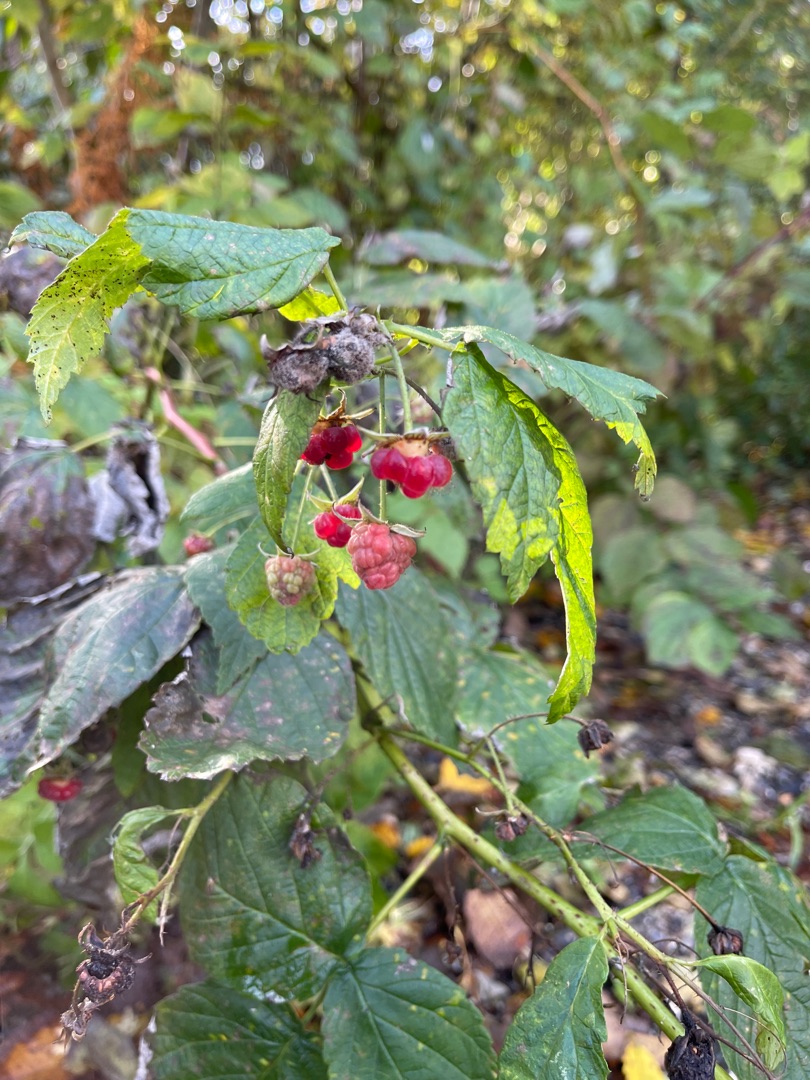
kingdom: Plantae
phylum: Tracheophyta
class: Magnoliopsida
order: Rosales
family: Rosaceae
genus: Rubus
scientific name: Rubus idaeus
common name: Hindbær
